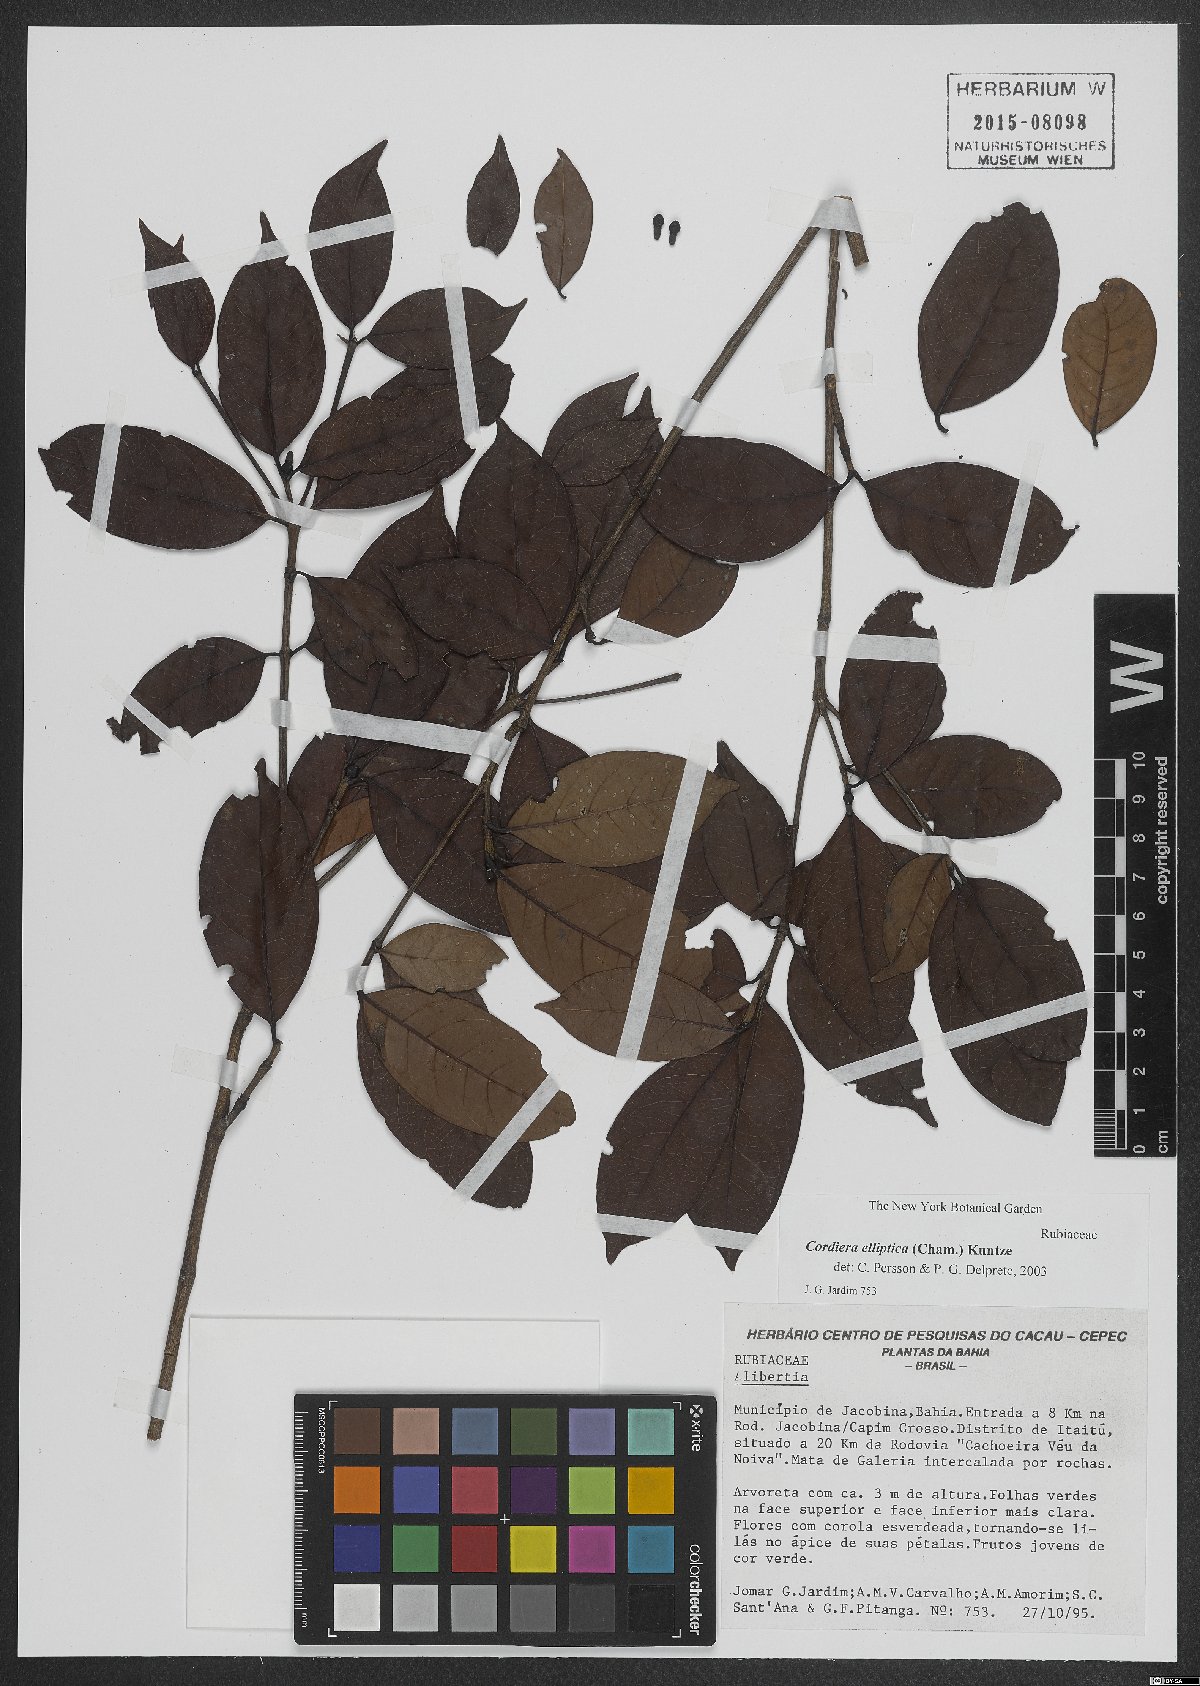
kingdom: Plantae
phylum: Tracheophyta
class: Magnoliopsida
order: Gentianales
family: Rubiaceae
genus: Cordiera
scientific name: Cordiera elliptica
